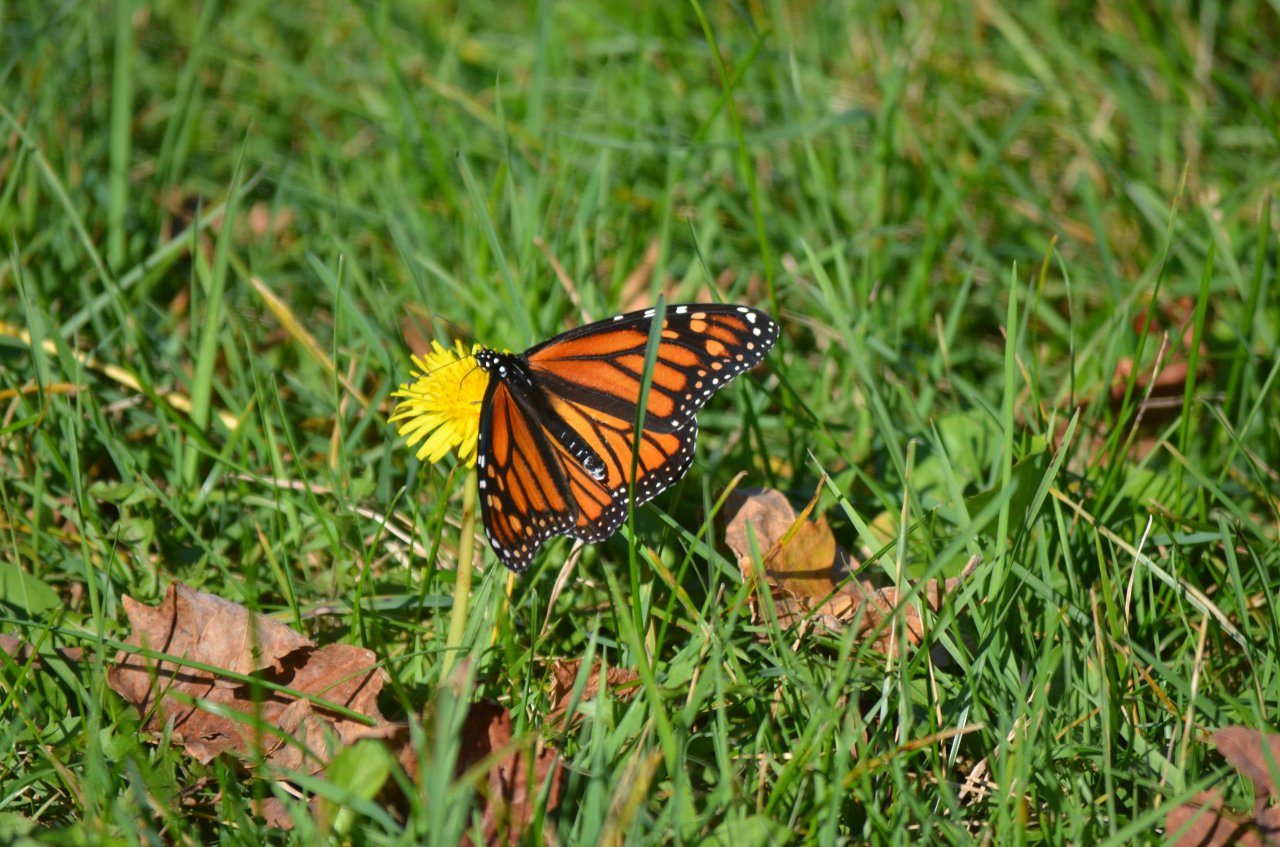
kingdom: Animalia
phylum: Arthropoda
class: Insecta
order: Lepidoptera
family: Nymphalidae
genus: Danaus
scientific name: Danaus plexippus
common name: Monarch
